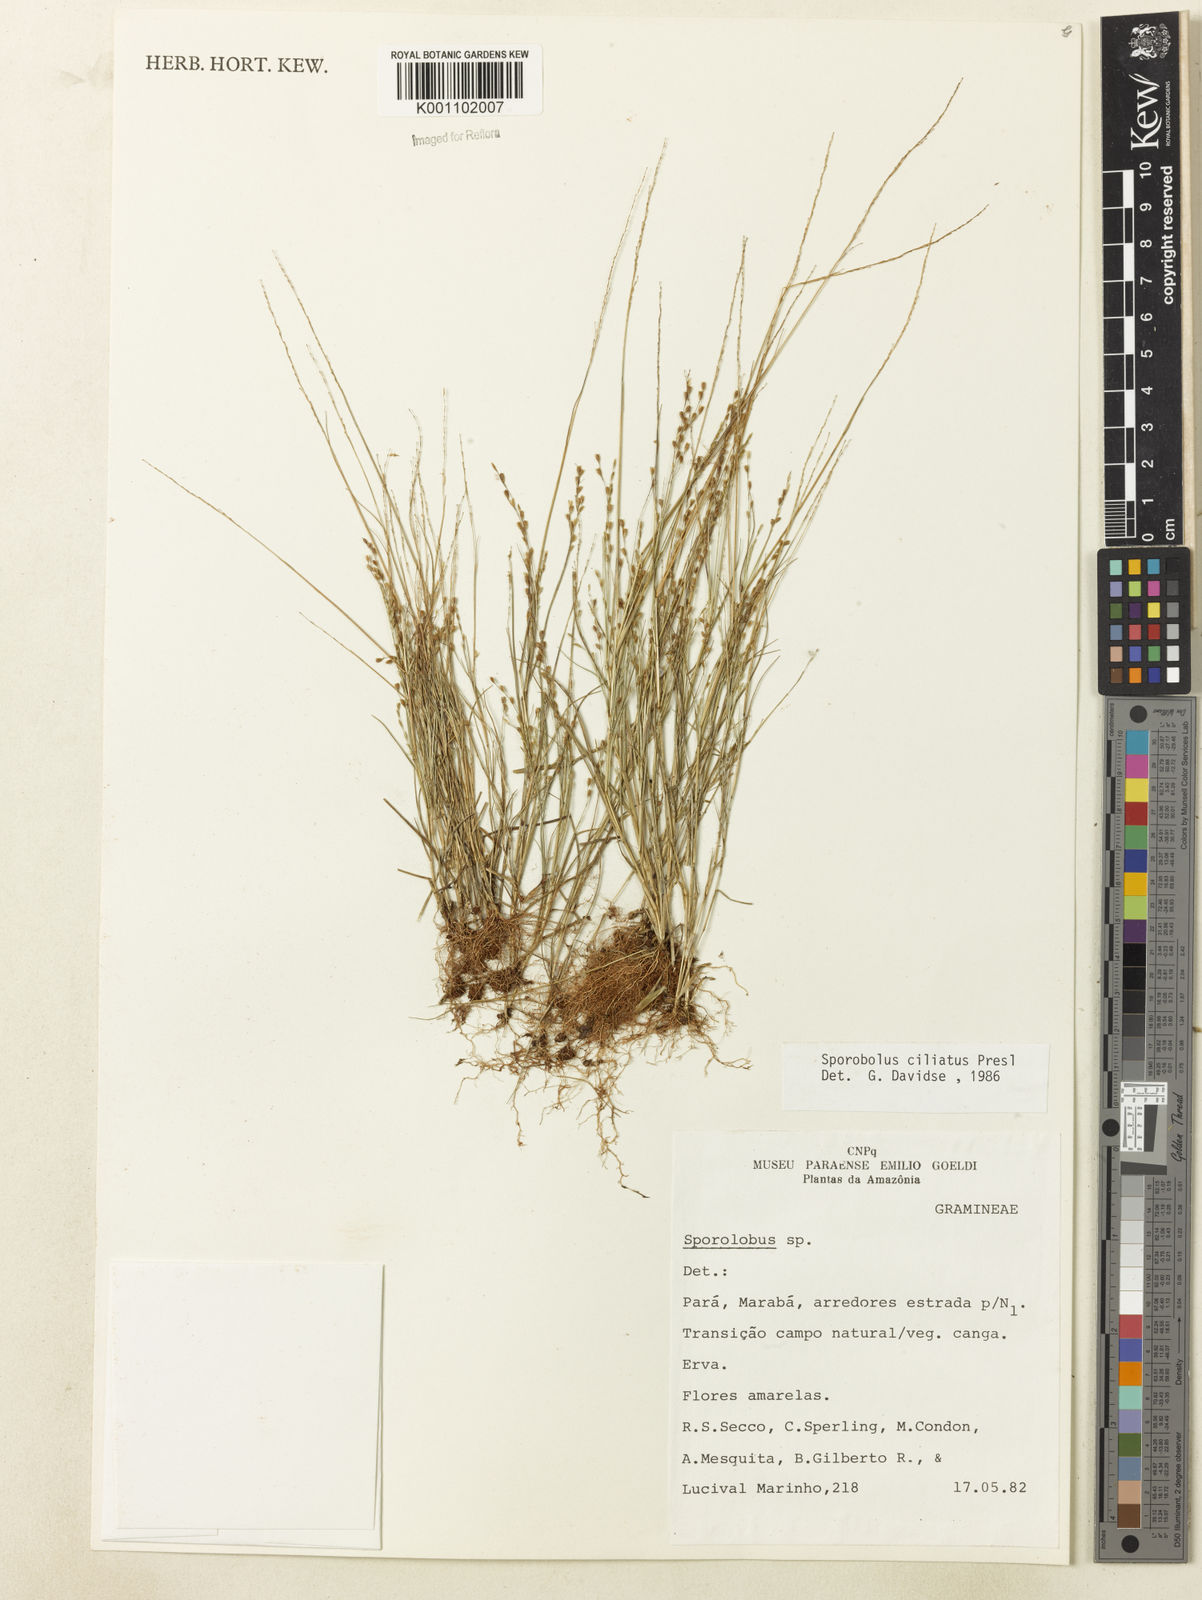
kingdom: Plantae
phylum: Tracheophyta
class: Liliopsida
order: Poales
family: Poaceae
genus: Sporobolus
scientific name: Sporobolus
